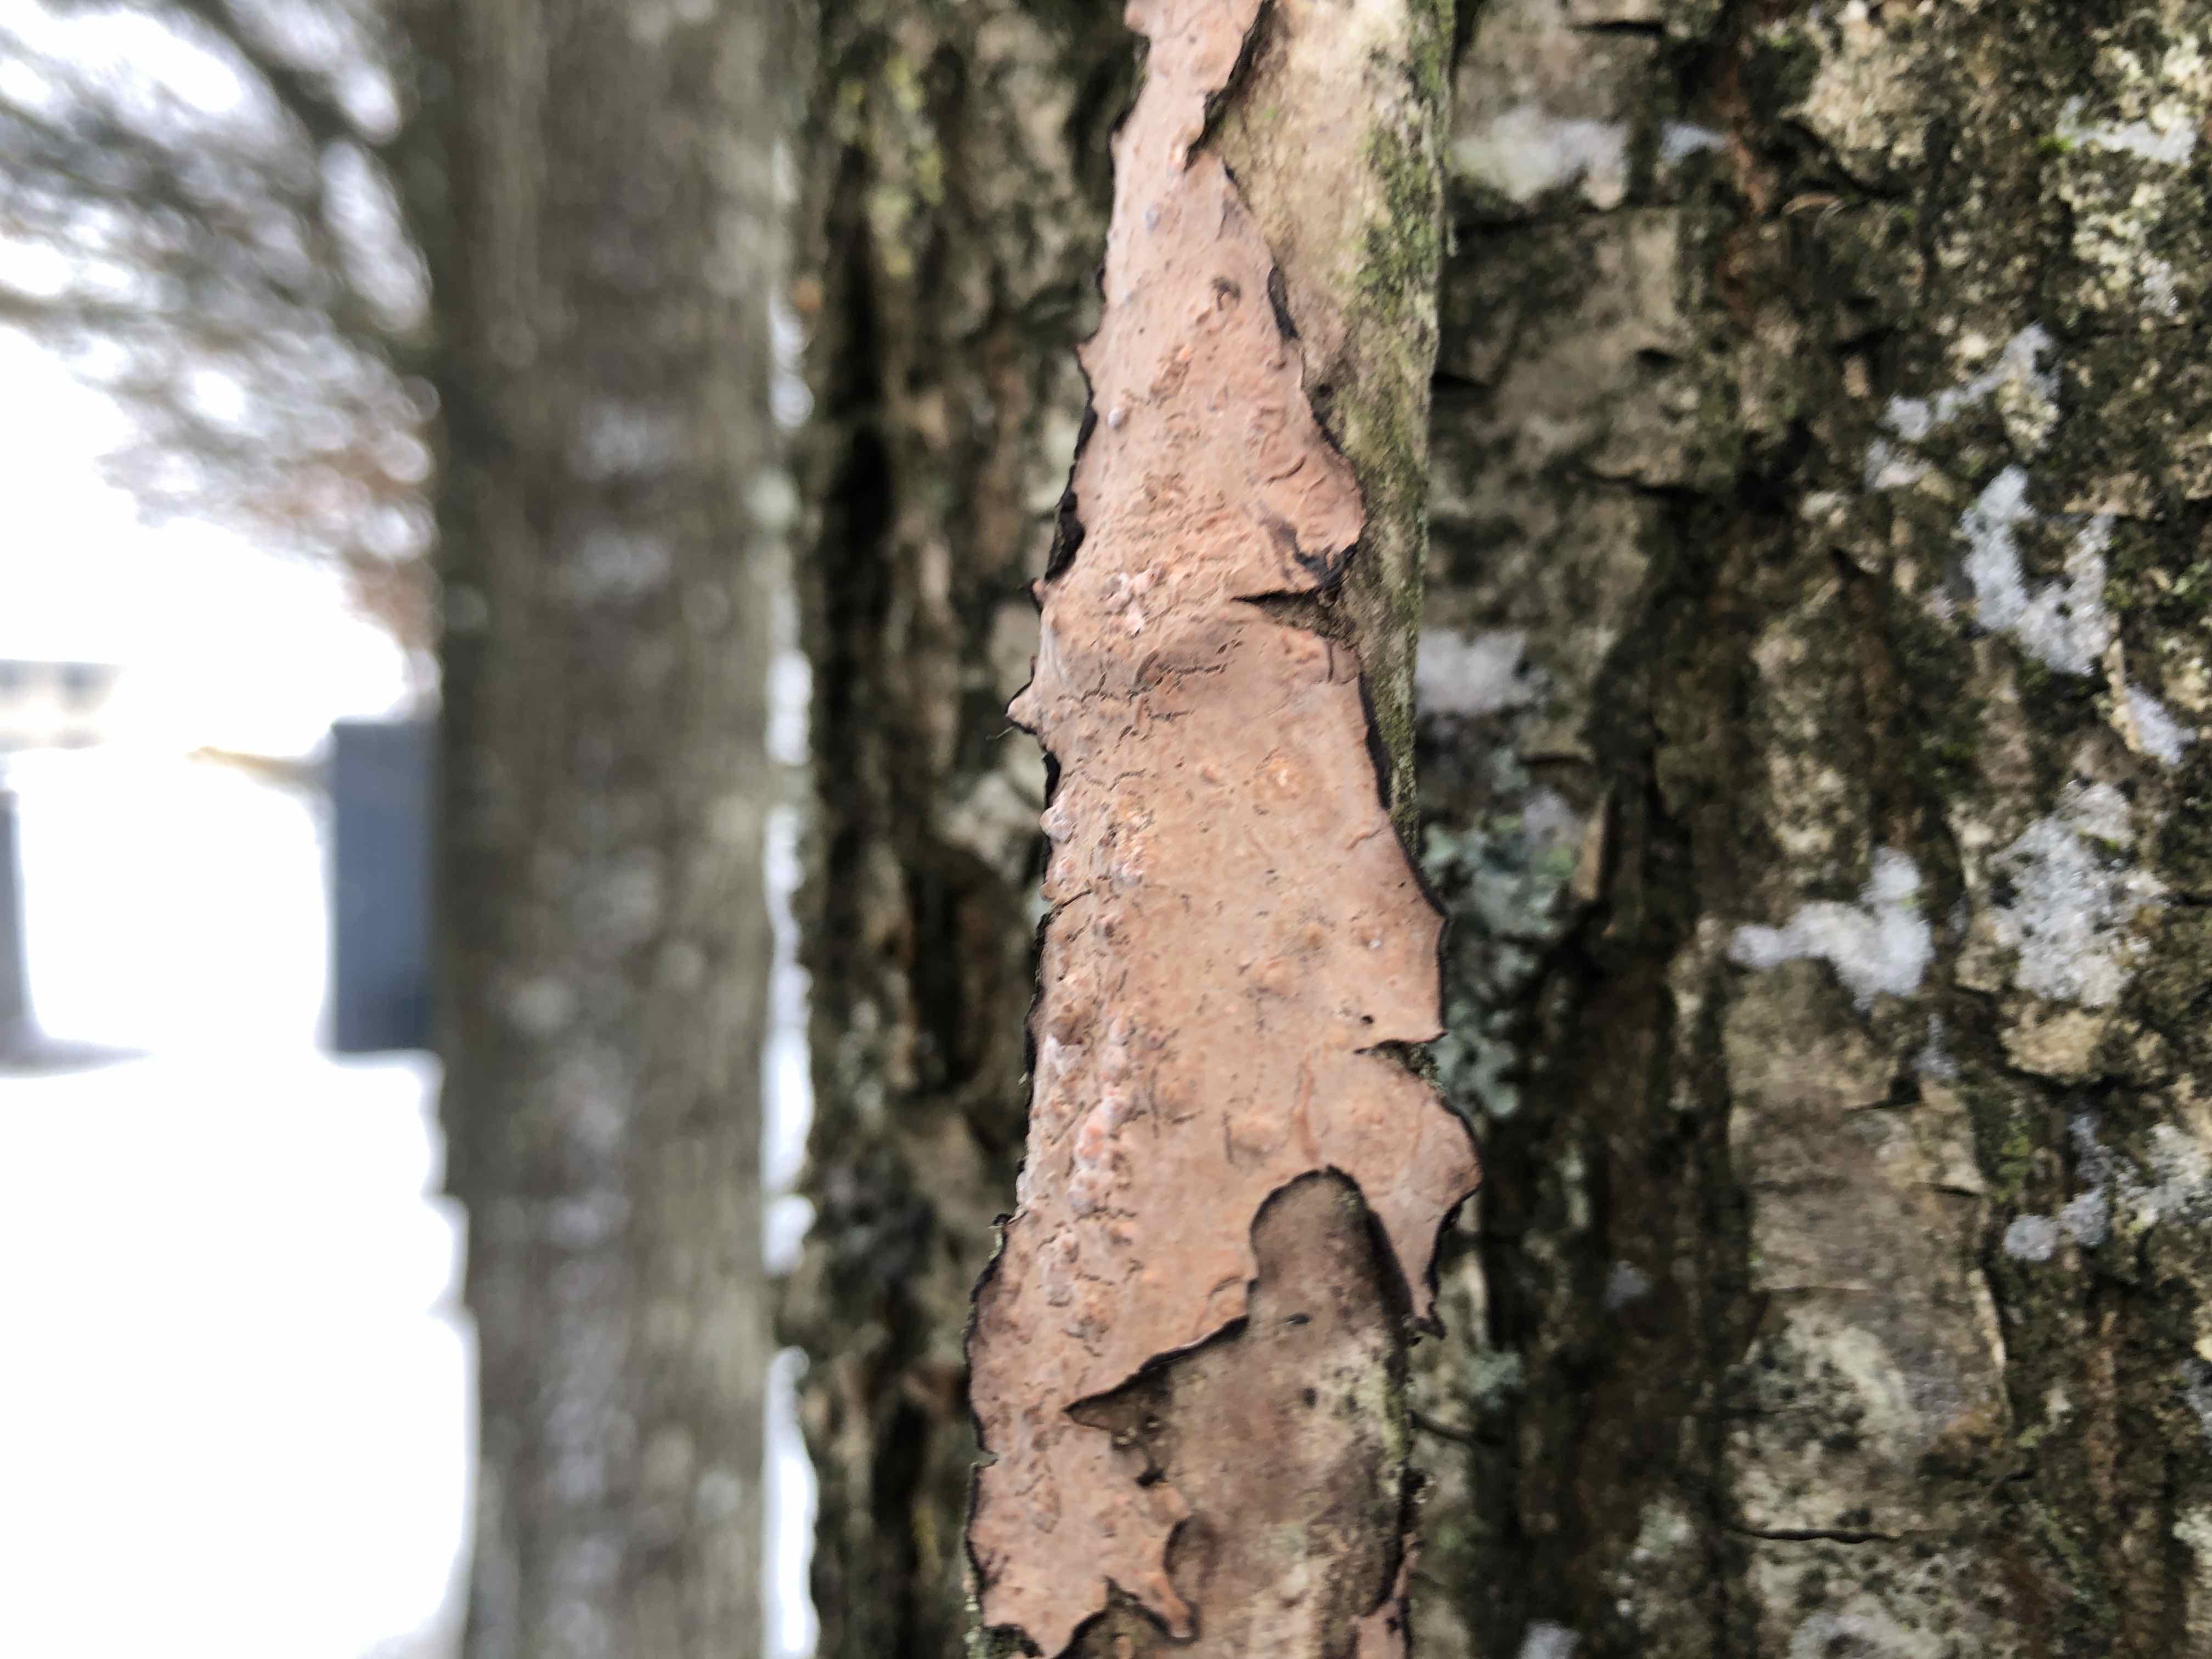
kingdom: Fungi
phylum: Basidiomycota
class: Agaricomycetes
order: Russulales
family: Peniophoraceae
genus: Peniophora
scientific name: Peniophora quercina
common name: ege-voksskind
